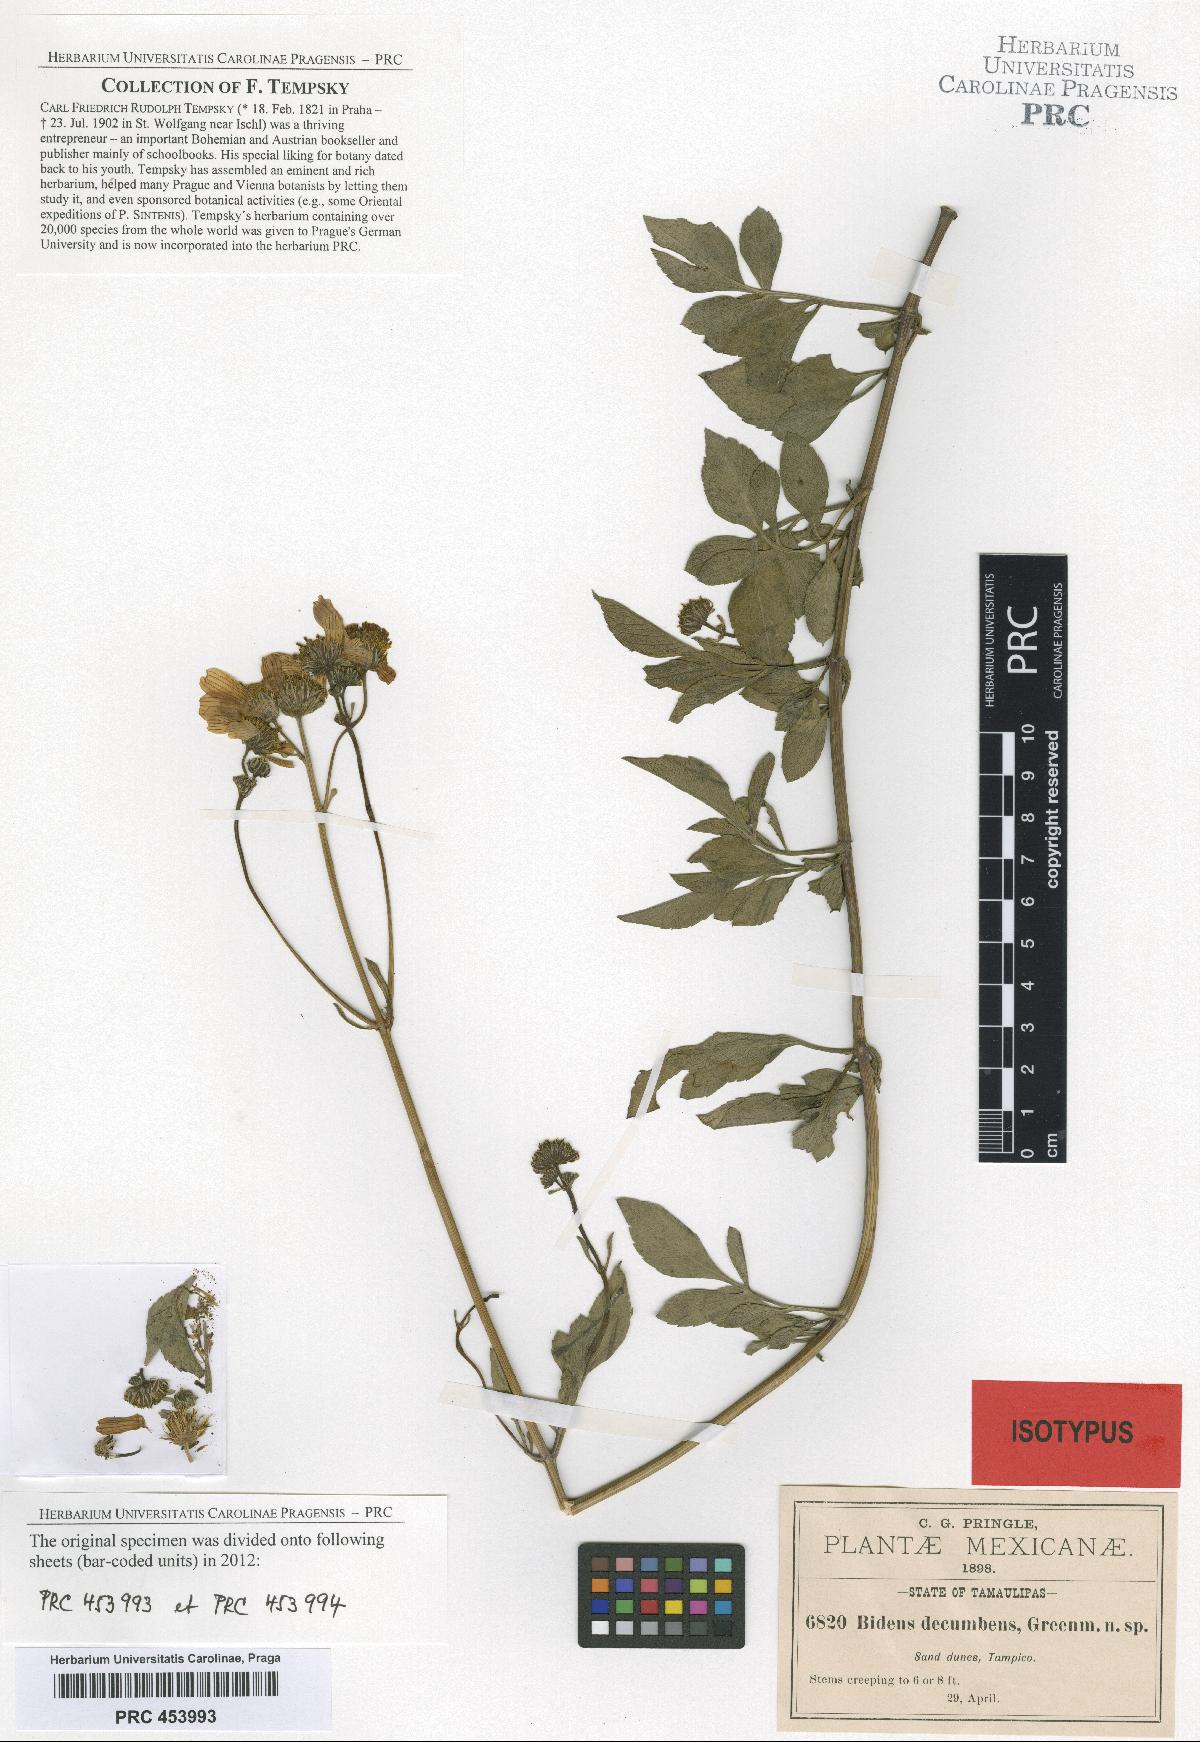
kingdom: Plantae
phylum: Tracheophyta
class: Magnoliopsida
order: Asterales
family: Asteraceae
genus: Bidens
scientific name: Bidens alba
